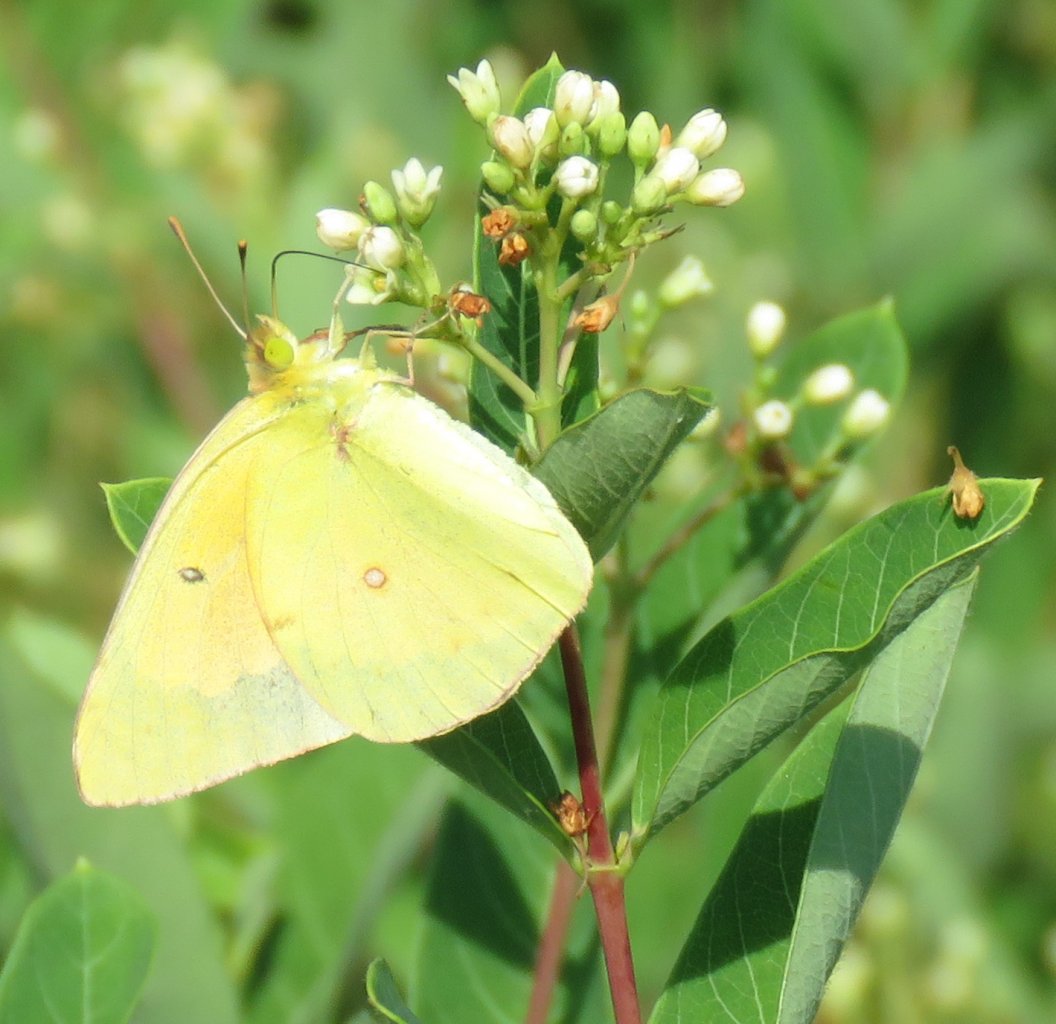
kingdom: Animalia
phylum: Arthropoda
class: Insecta
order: Lepidoptera
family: Pieridae
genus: Colias
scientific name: Colias eurytheme
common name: Orange Sulphur
